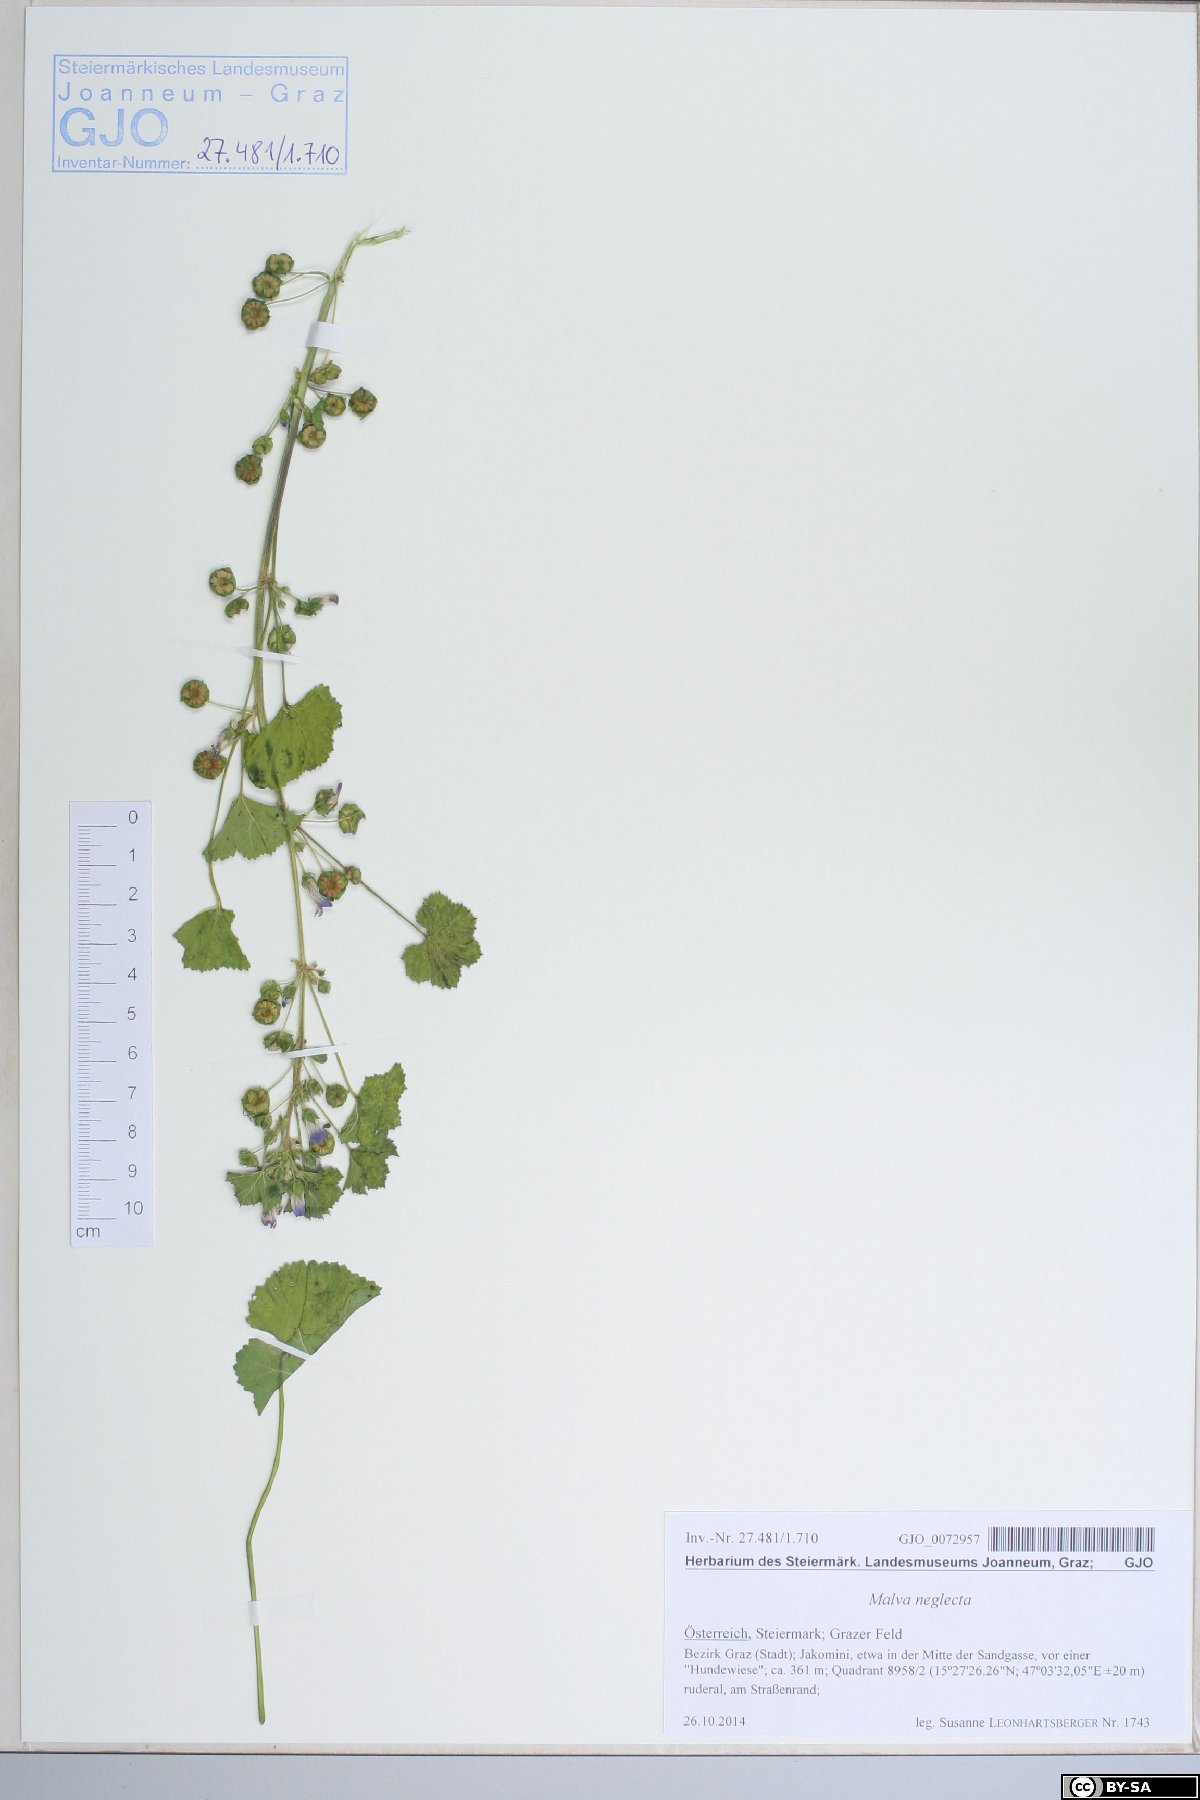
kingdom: Plantae
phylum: Tracheophyta
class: Magnoliopsida
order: Malvales
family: Malvaceae
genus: Malva
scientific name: Malva neglecta
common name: Common mallow
